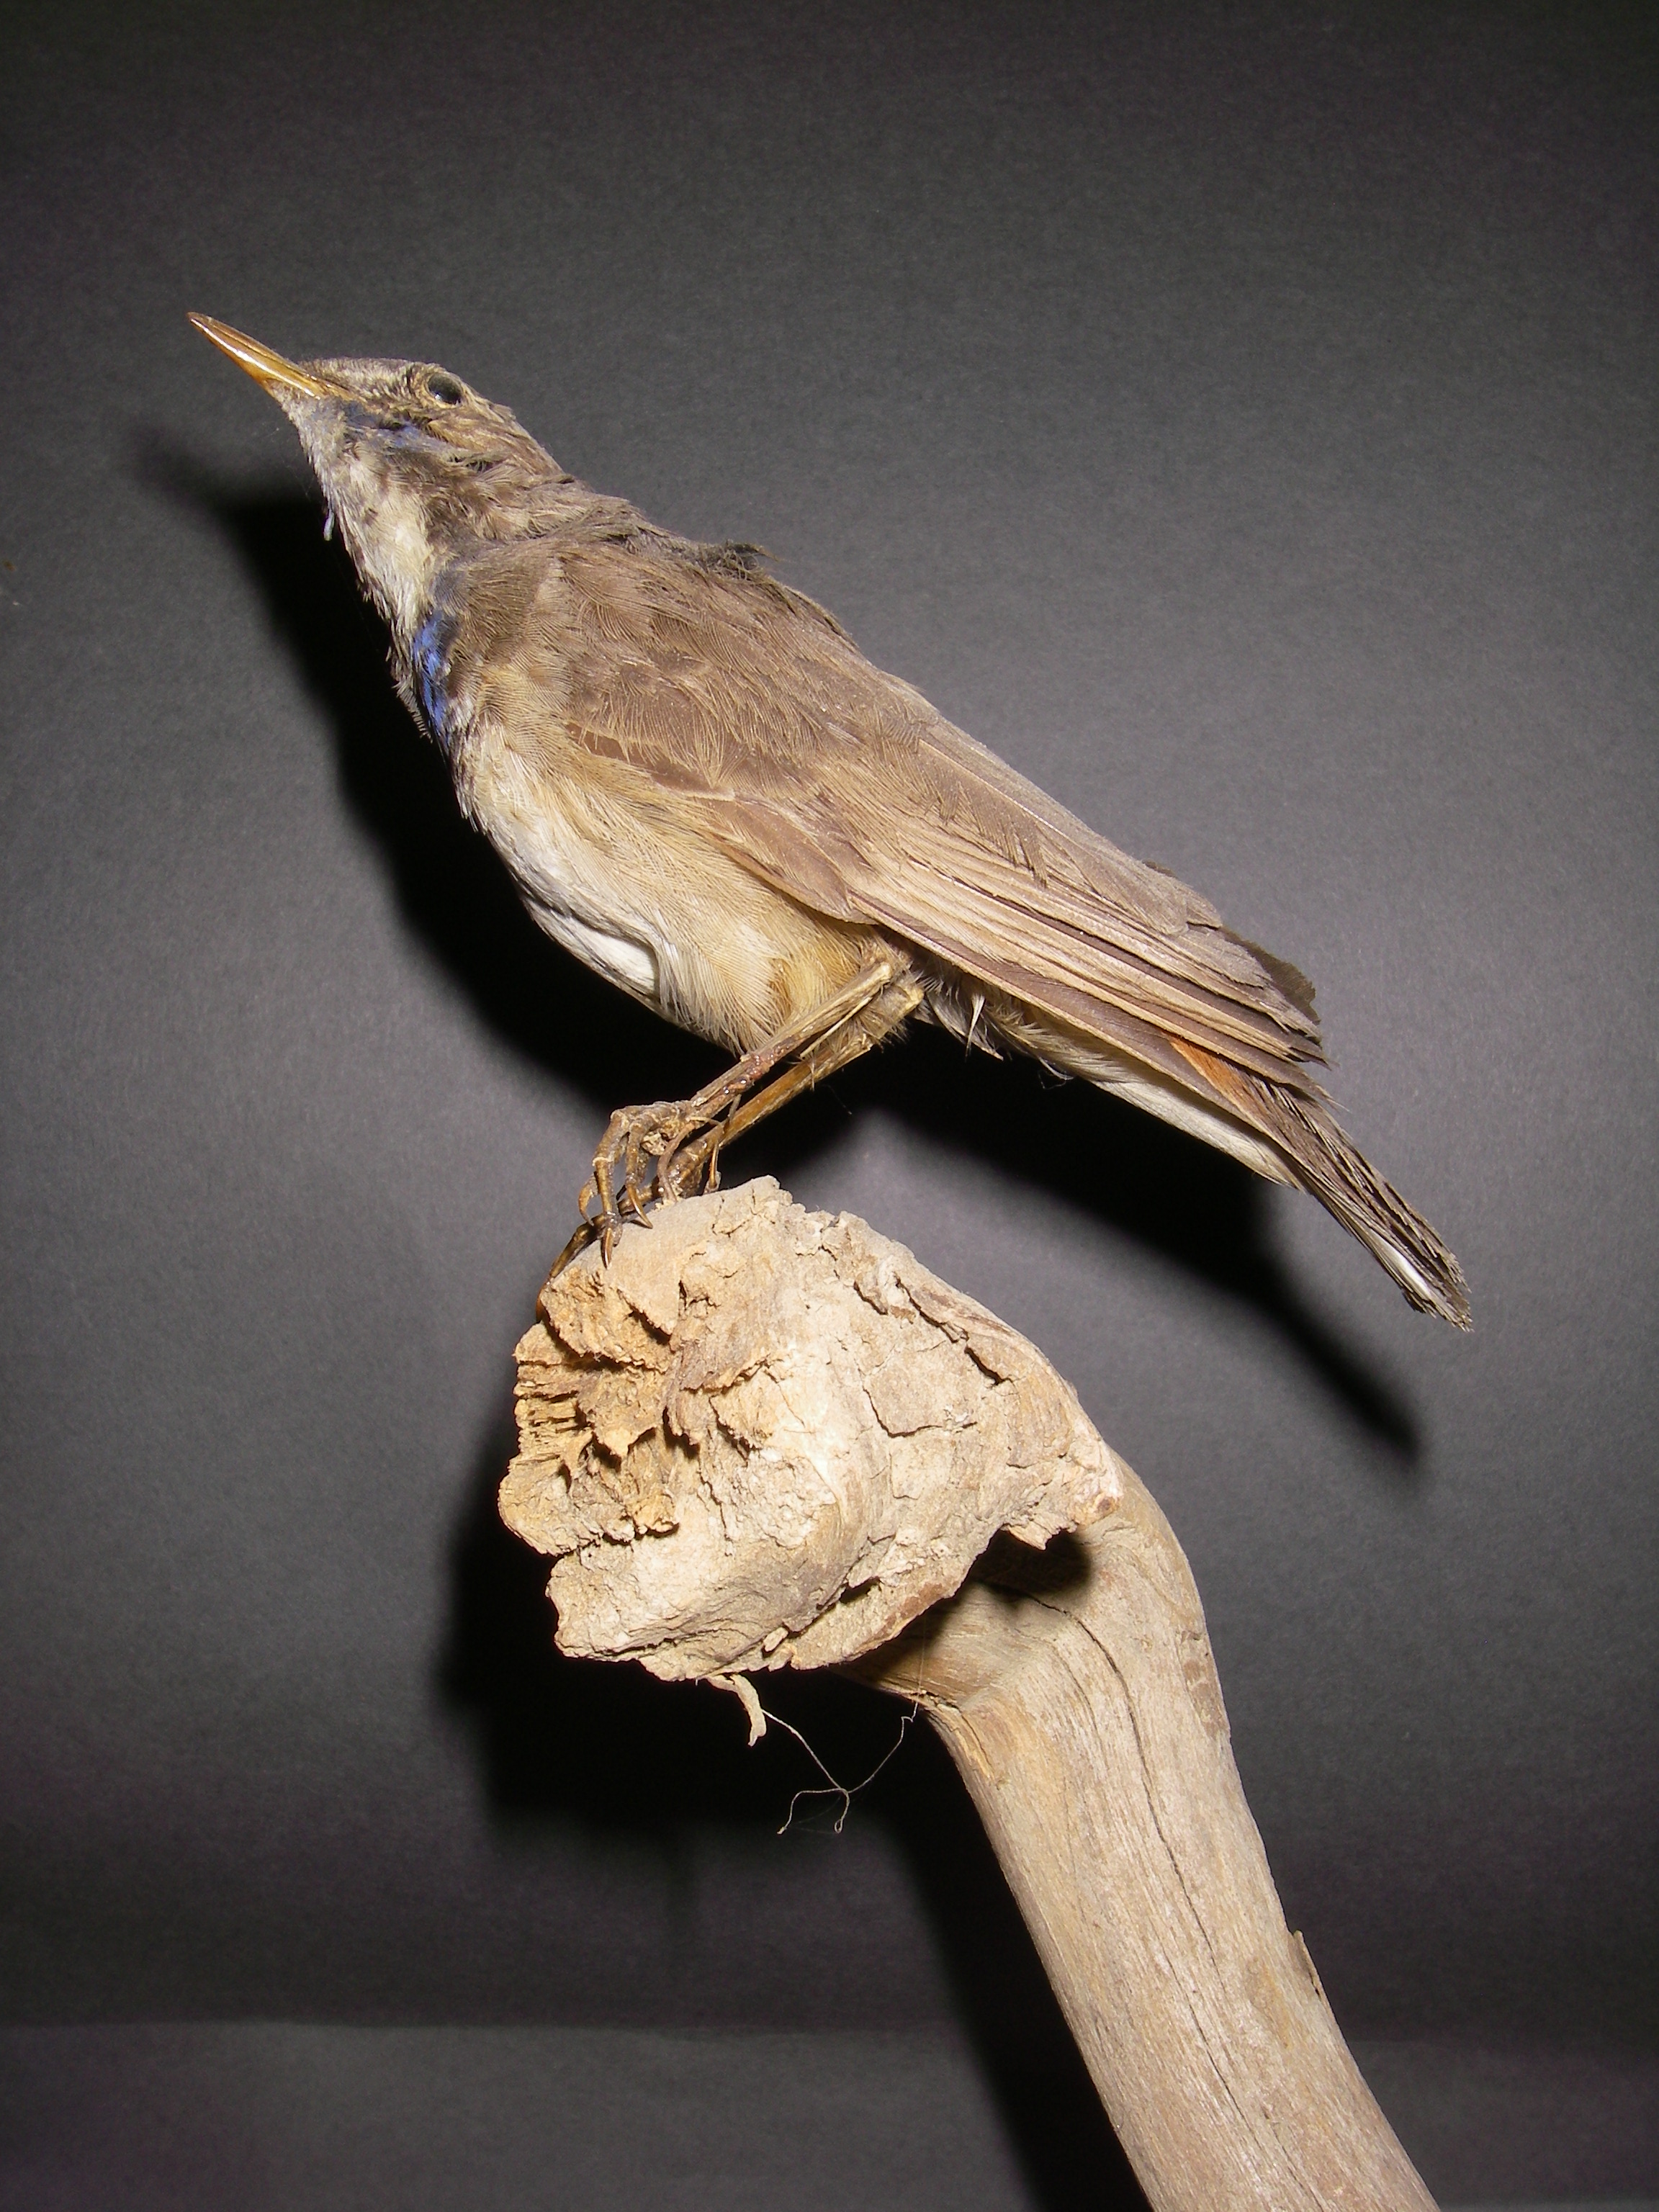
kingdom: Animalia
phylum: Chordata
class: Aves
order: Passeriformes
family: Muscicapidae
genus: Luscinia
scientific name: Luscinia svecica
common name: Bluethroat
